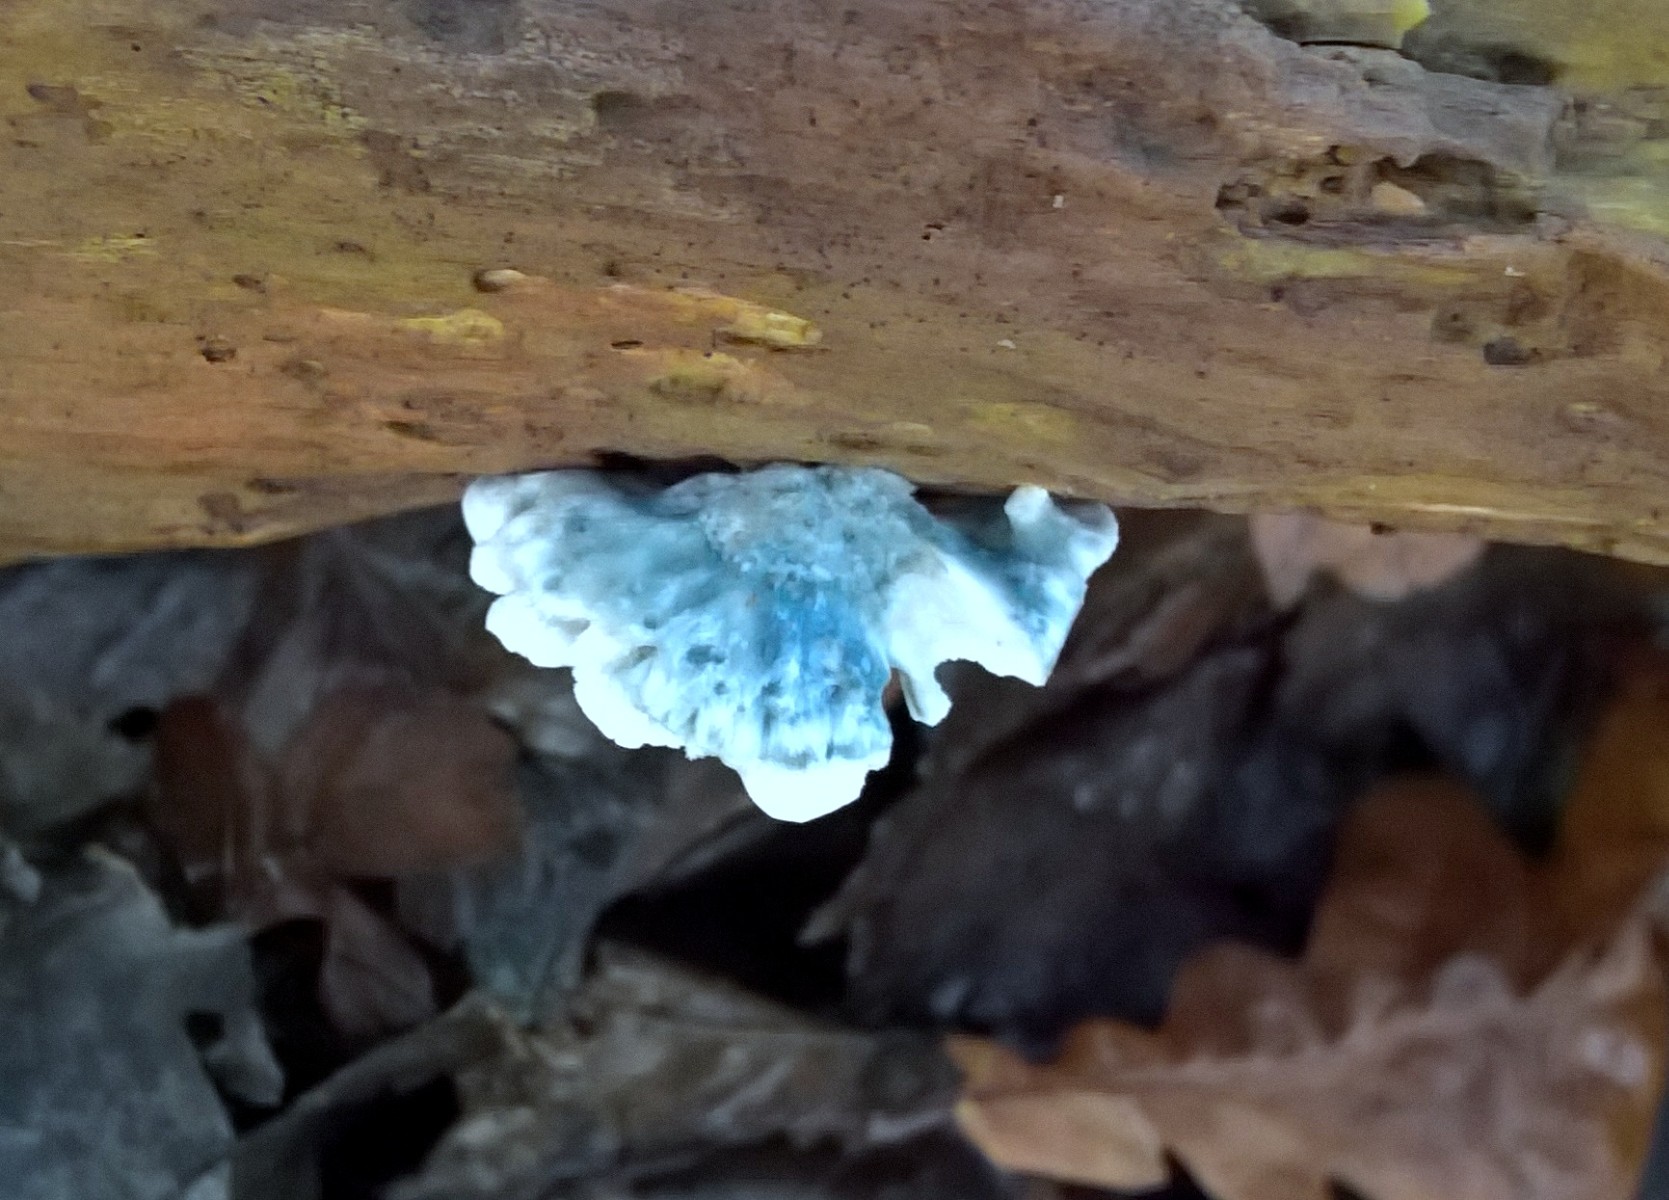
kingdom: Fungi
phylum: Basidiomycota
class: Agaricomycetes
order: Polyporales
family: Polyporaceae
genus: Cyanosporus
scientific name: Cyanosporus alni
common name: blegblå kødporesvamp
